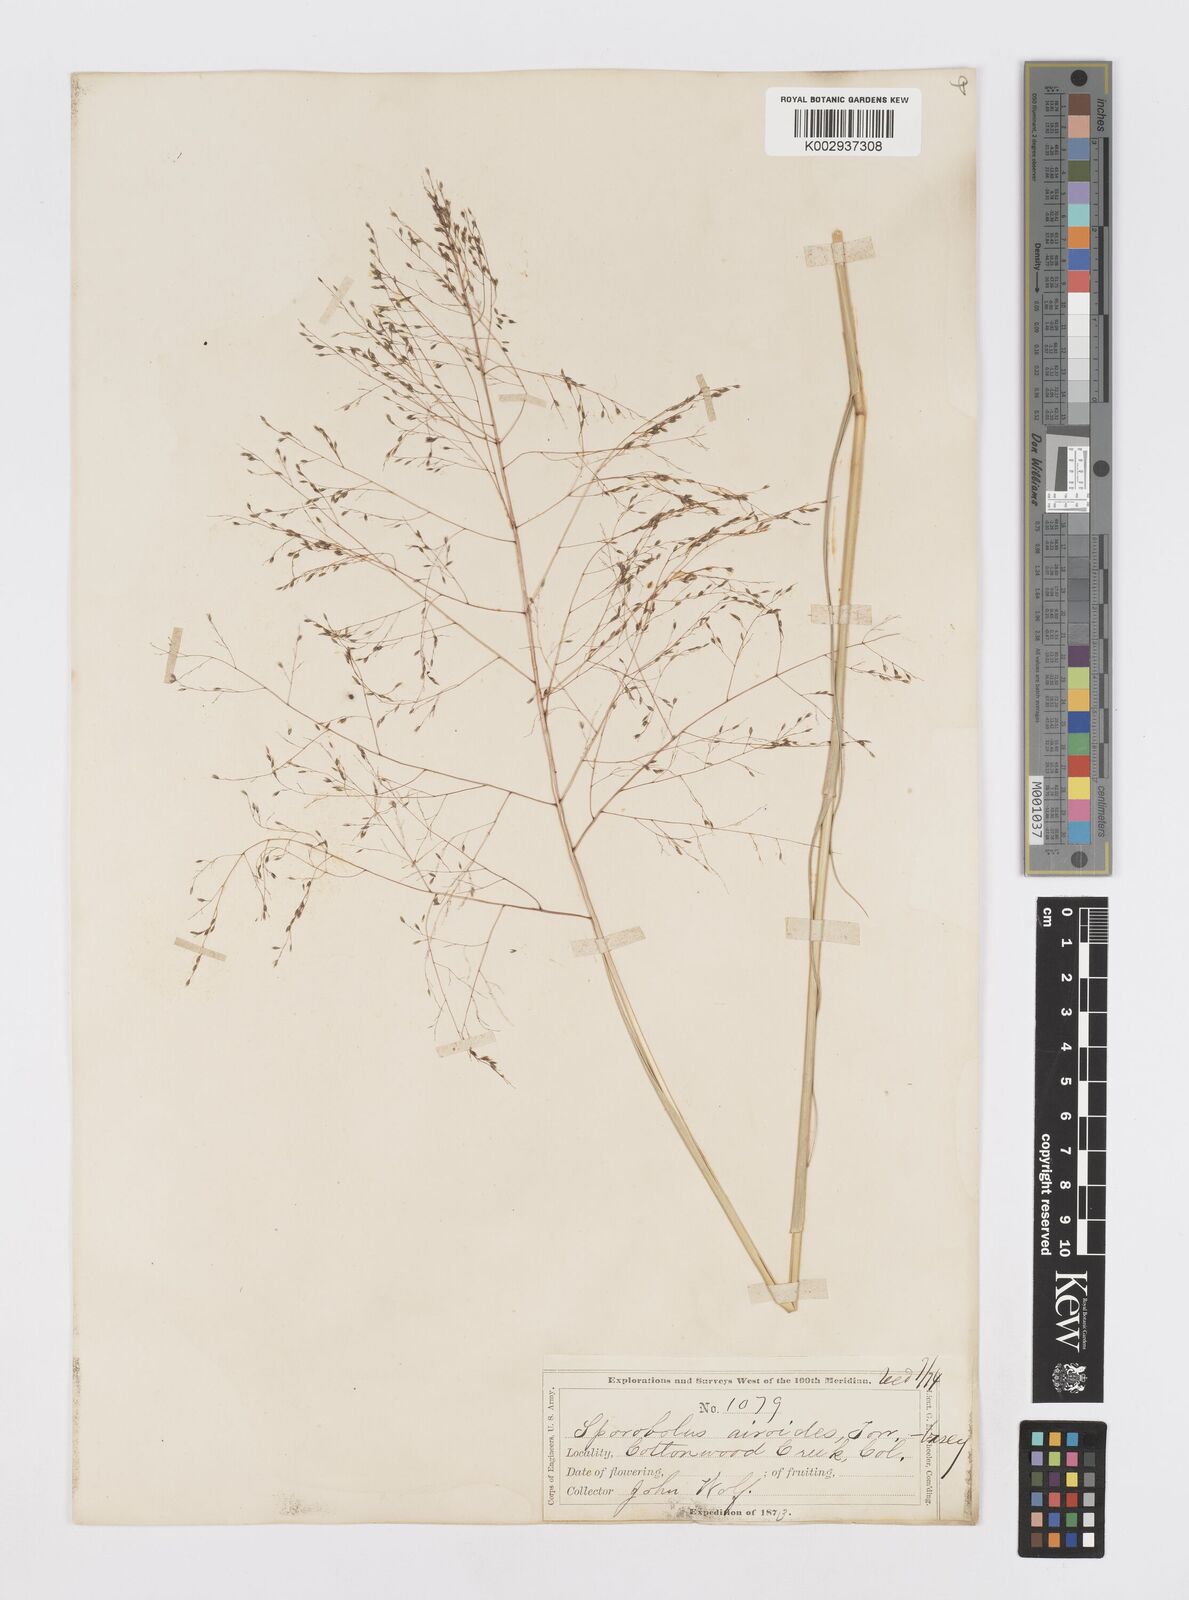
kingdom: Plantae
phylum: Tracheophyta
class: Liliopsida
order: Poales
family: Poaceae
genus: Sporobolus
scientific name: Sporobolus airoides
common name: Alkali sacaton
